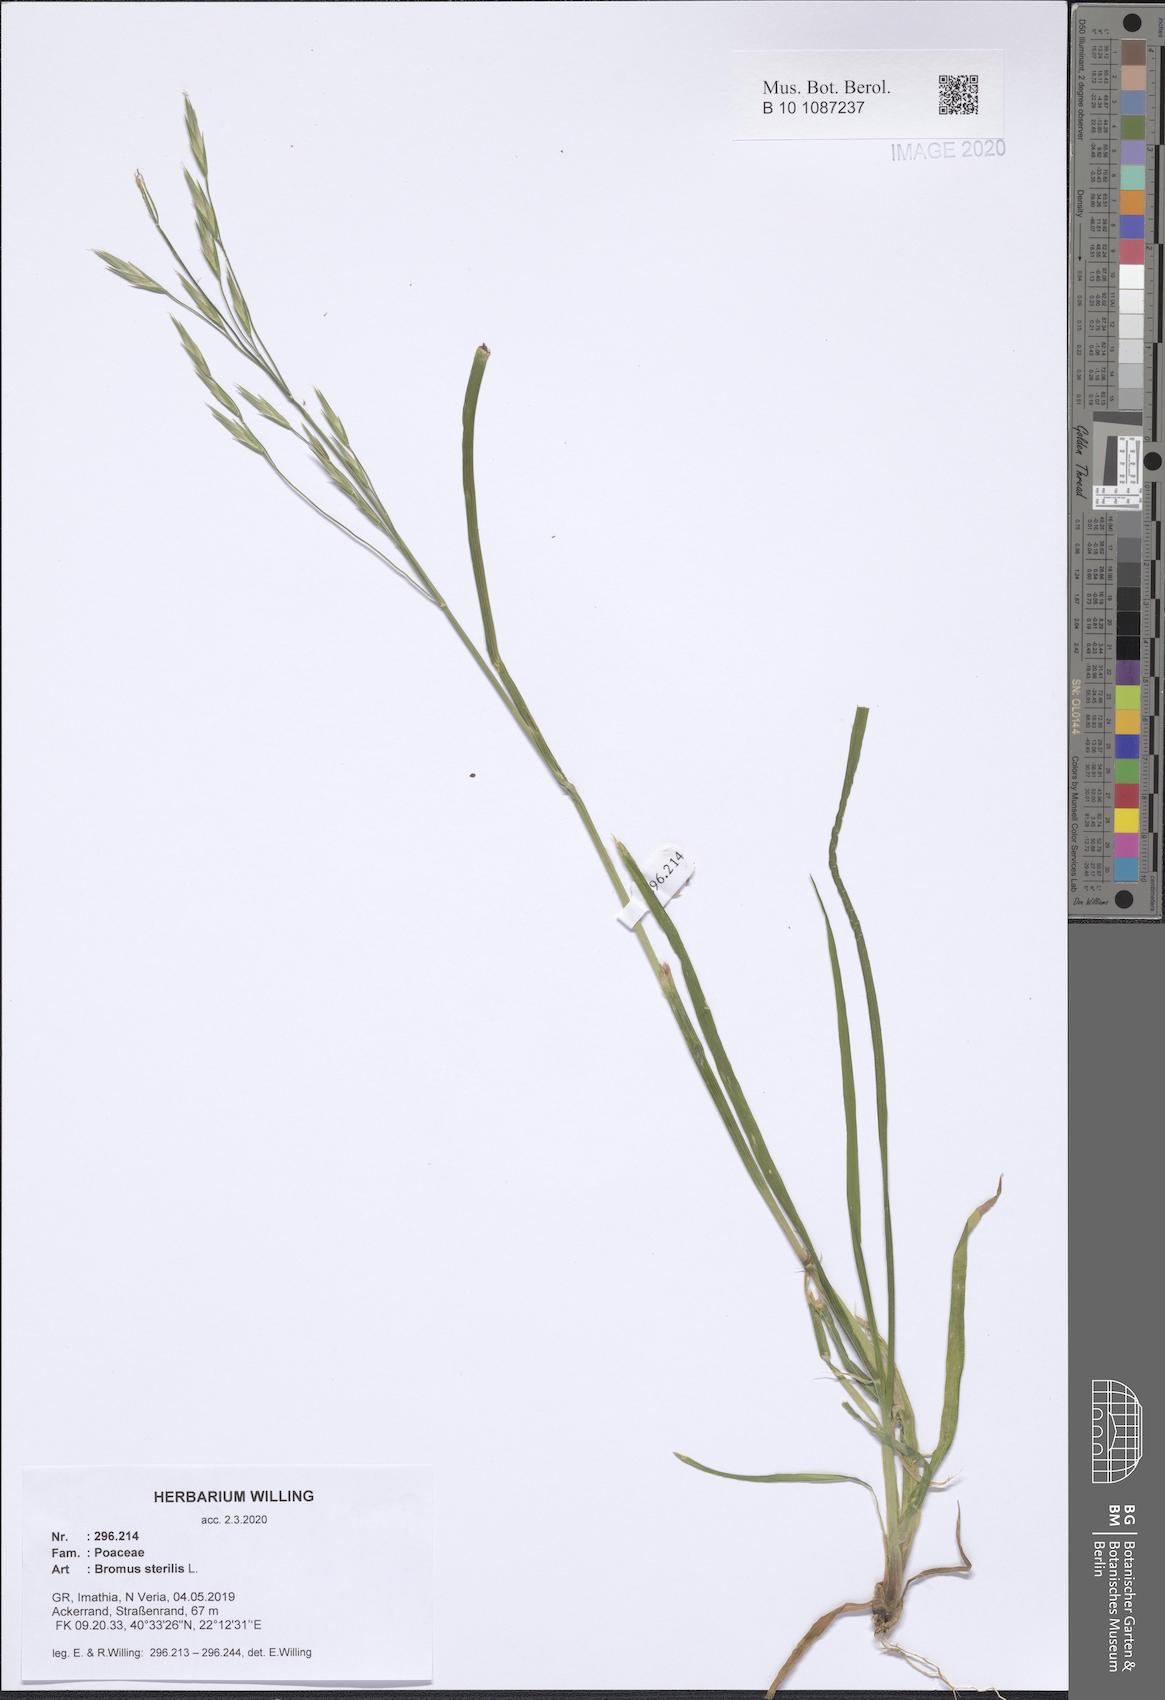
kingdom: Plantae
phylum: Tracheophyta
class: Liliopsida
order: Poales
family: Poaceae
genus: Bromus
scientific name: Bromus sterilis
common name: Poverty brome
